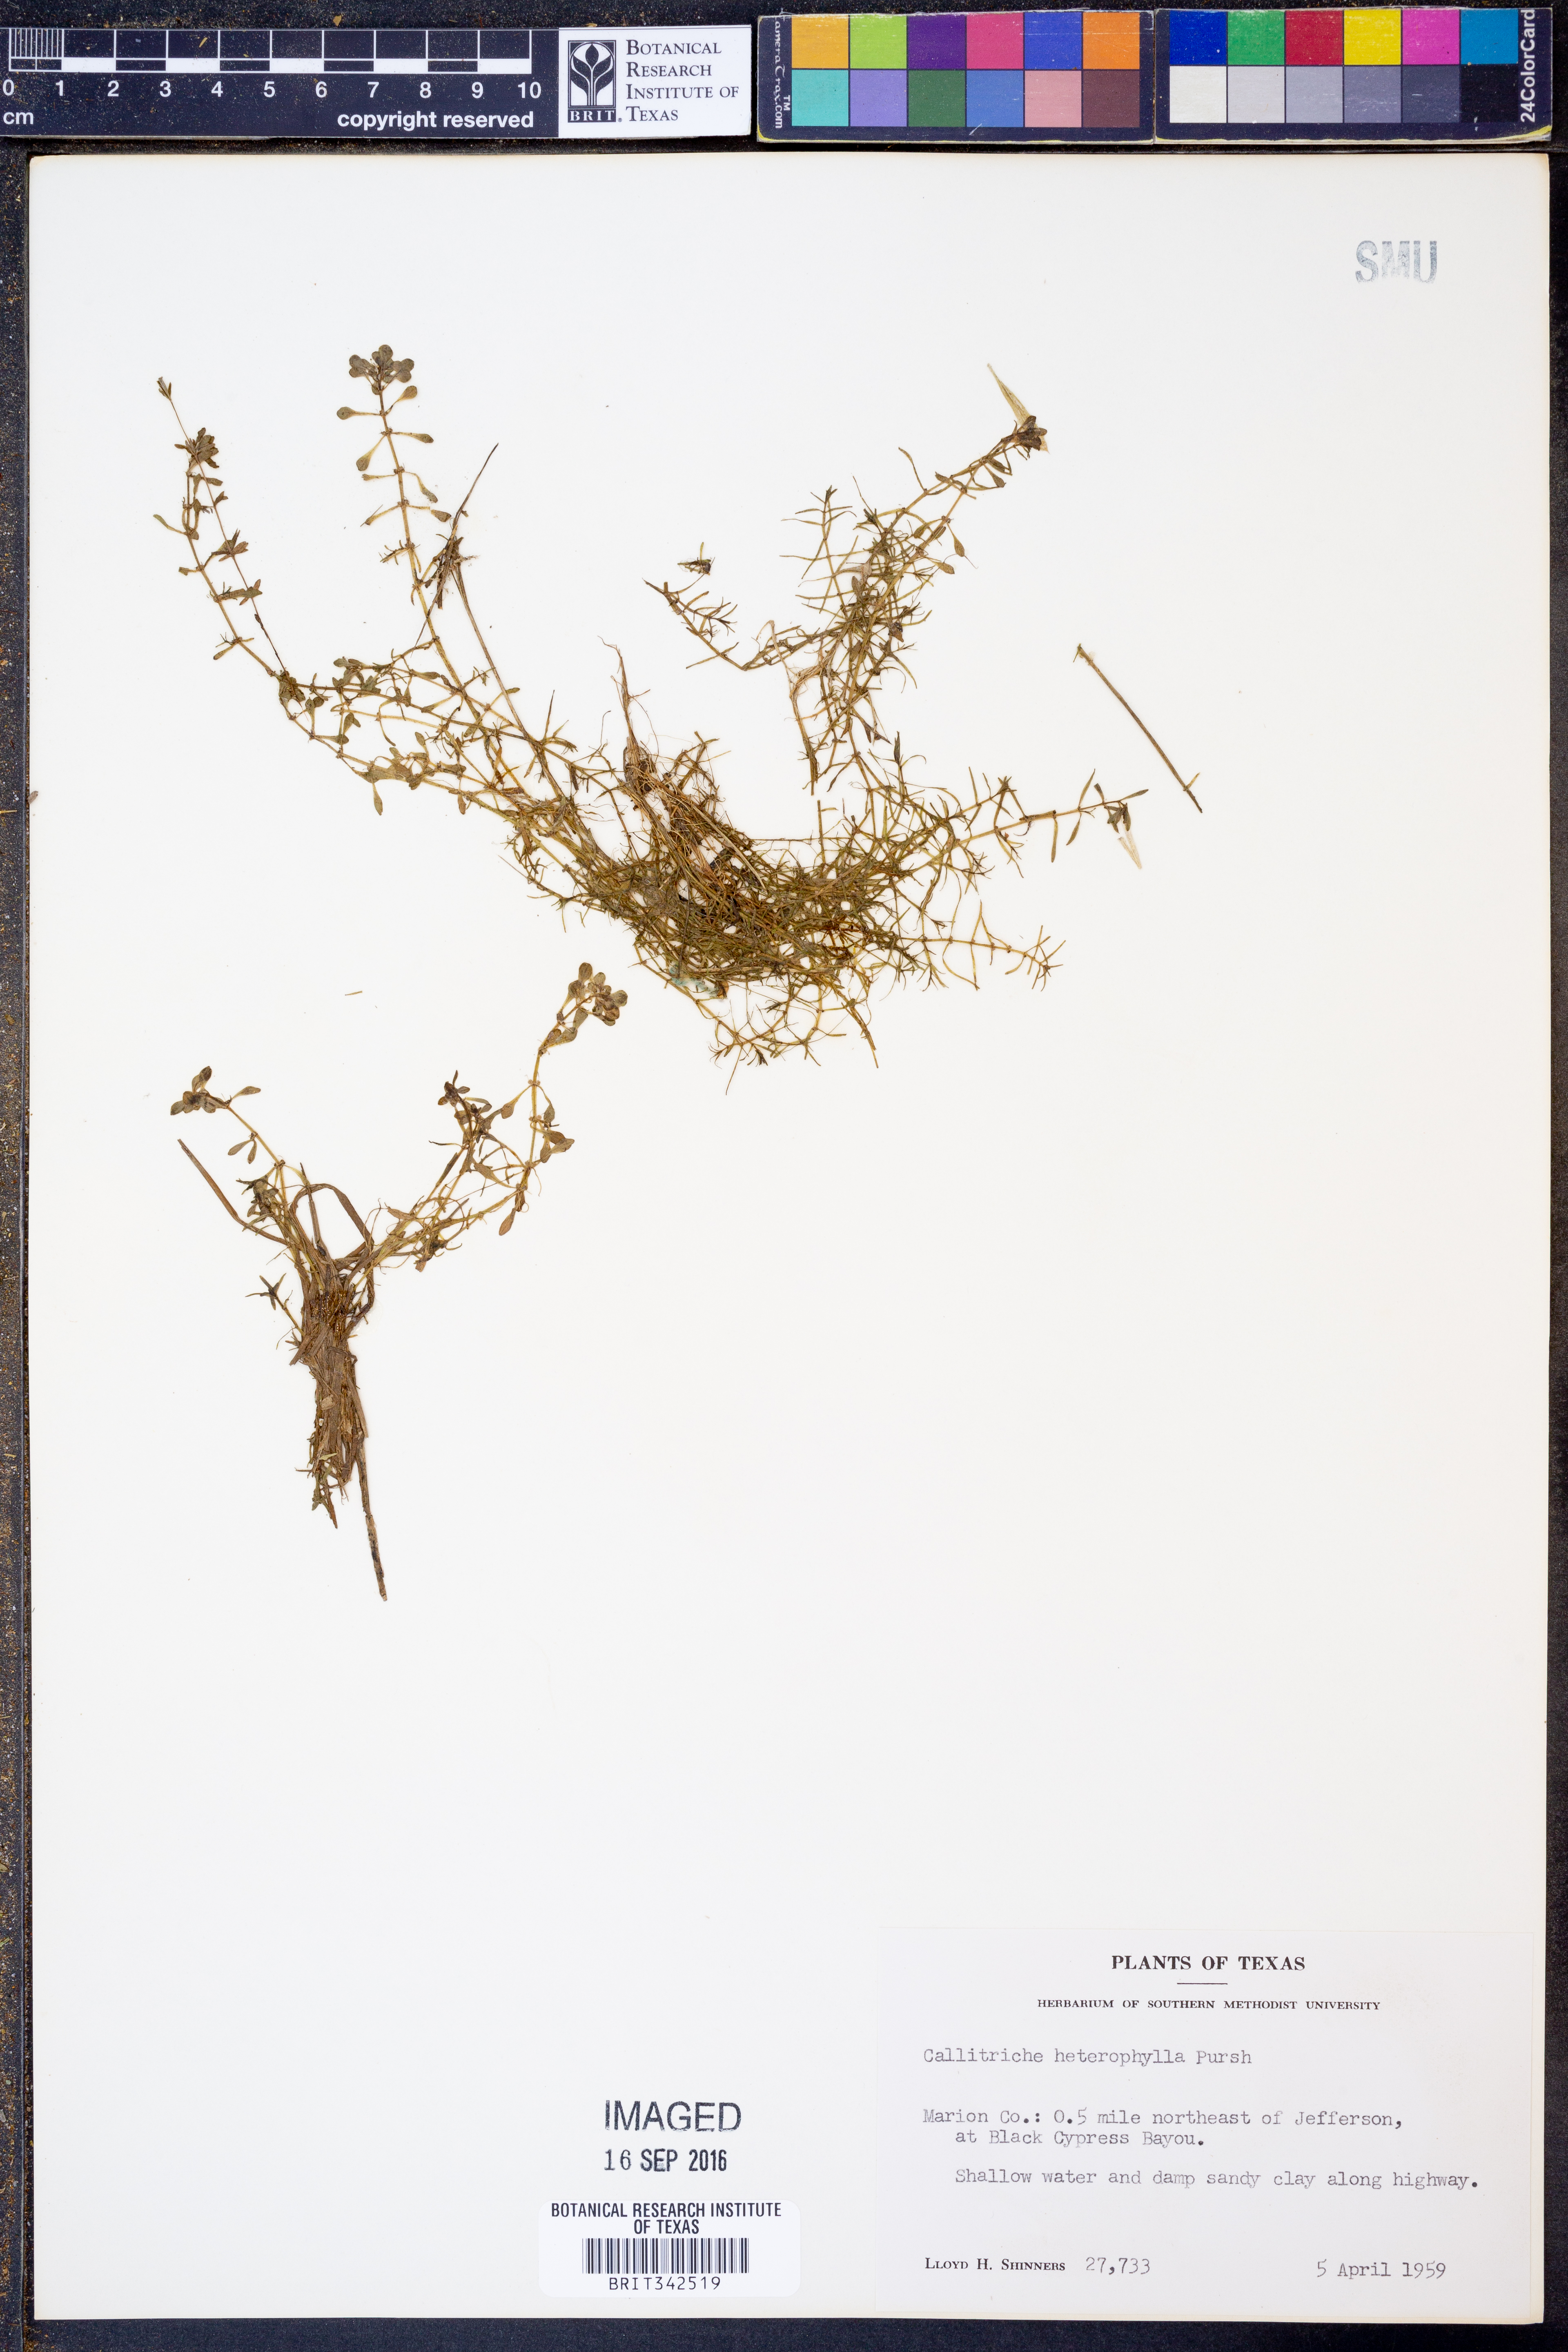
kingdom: Plantae
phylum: Tracheophyta
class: Magnoliopsida
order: Lamiales
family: Plantaginaceae
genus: Callitriche
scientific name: Callitriche heterophylla
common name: Two-headed water-starwort
